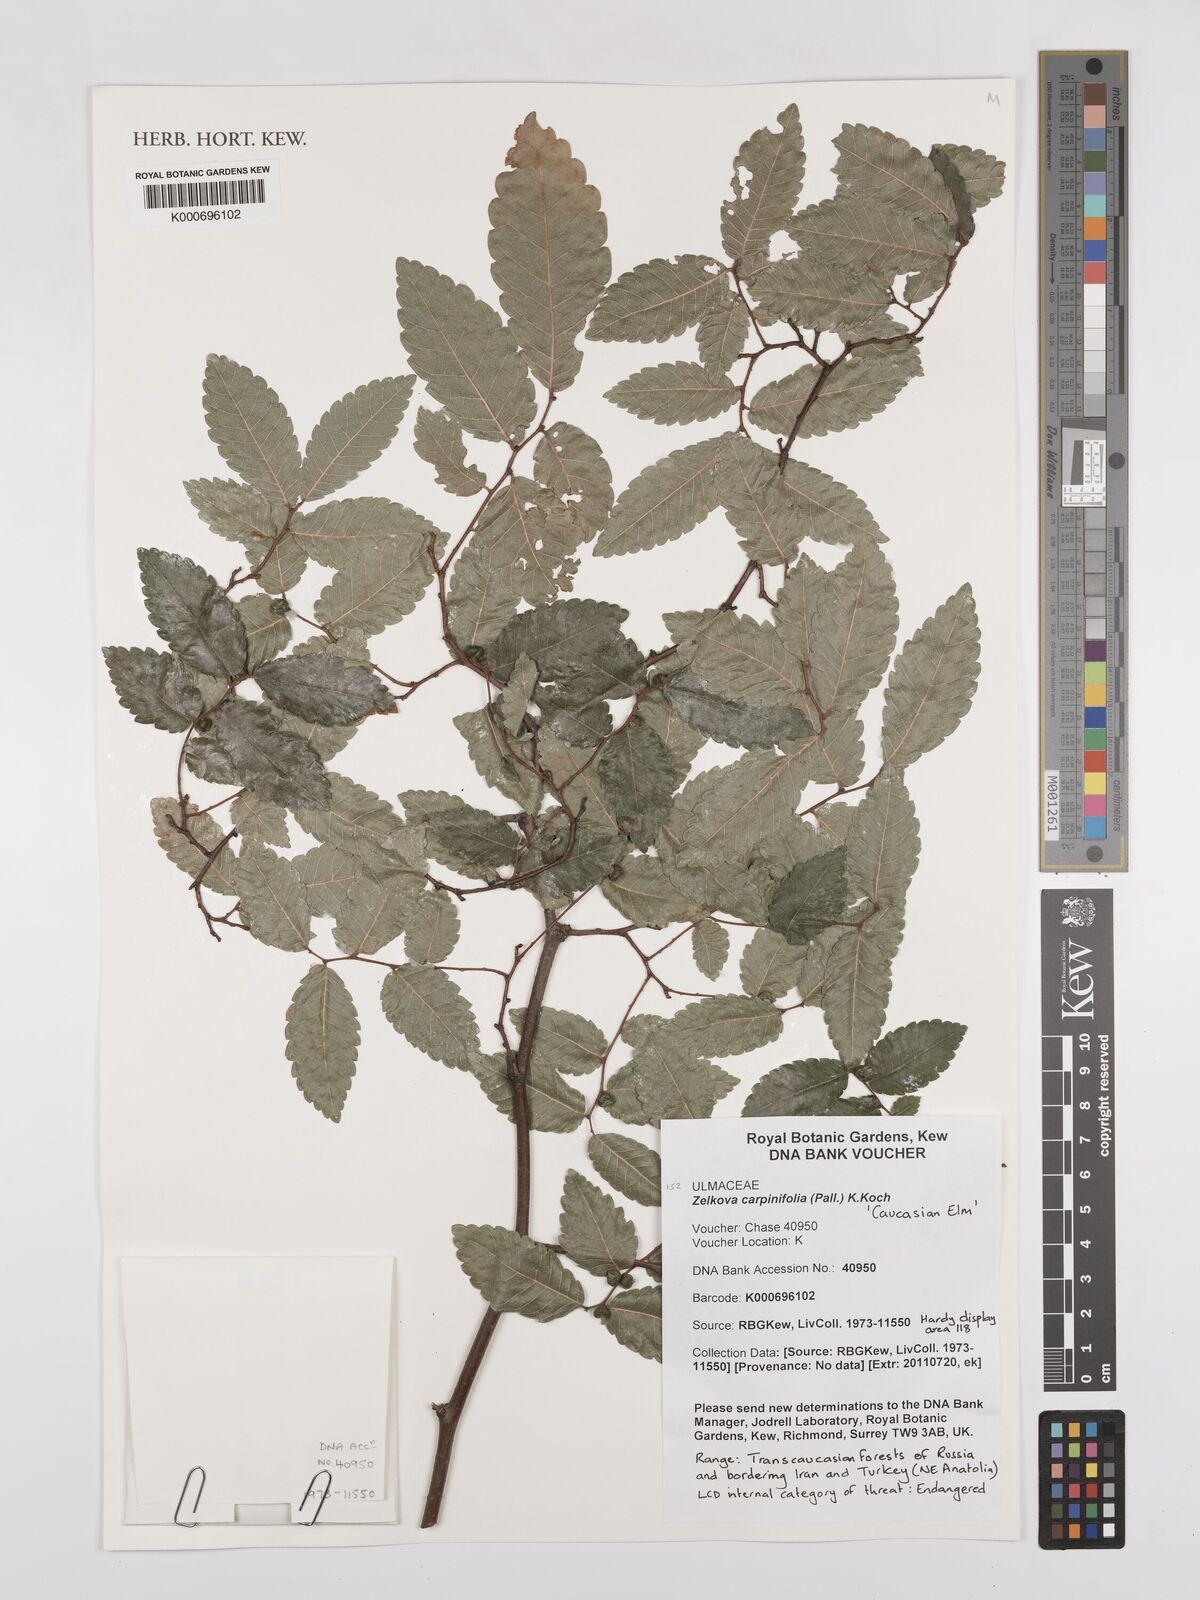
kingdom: Plantae
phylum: Tracheophyta
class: Magnoliopsida
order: Rosales
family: Ulmaceae
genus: Zelkova
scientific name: Zelkova carpinifolia
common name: Caucasian elm
